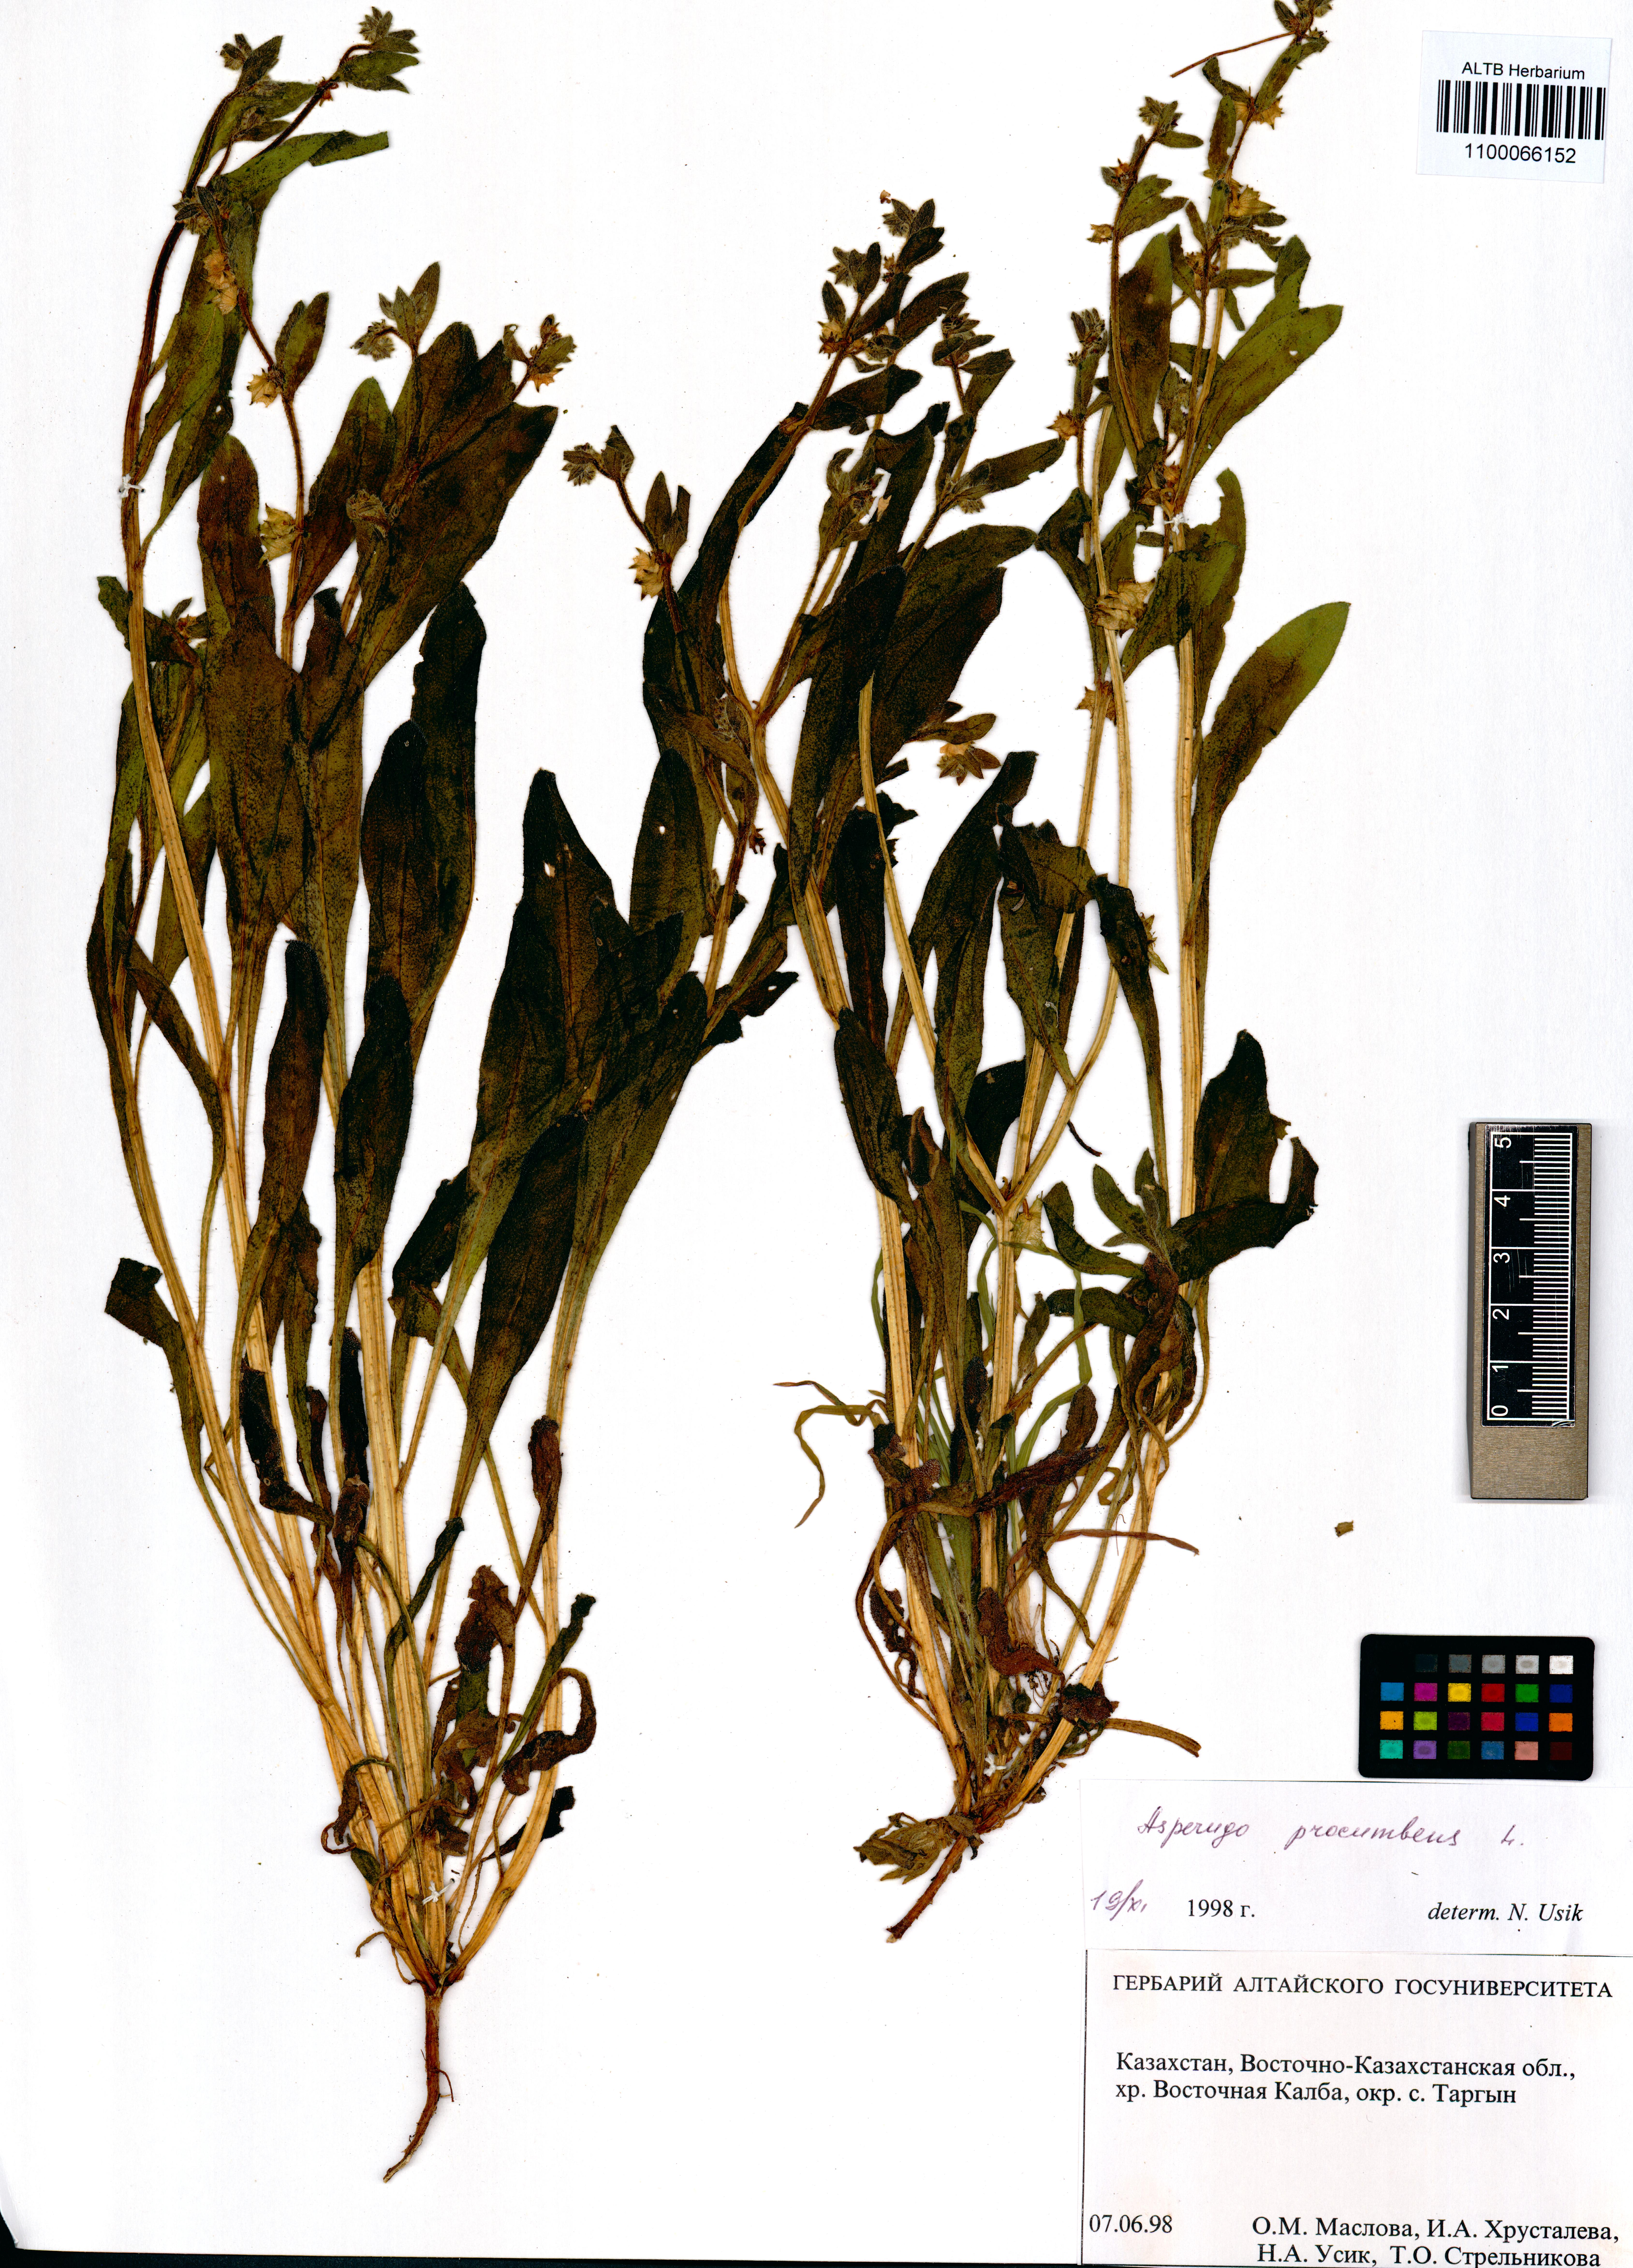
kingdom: Plantae
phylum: Tracheophyta
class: Magnoliopsida
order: Boraginales
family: Boraginaceae
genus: Asperugo
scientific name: Asperugo procumbens
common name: Madwort
